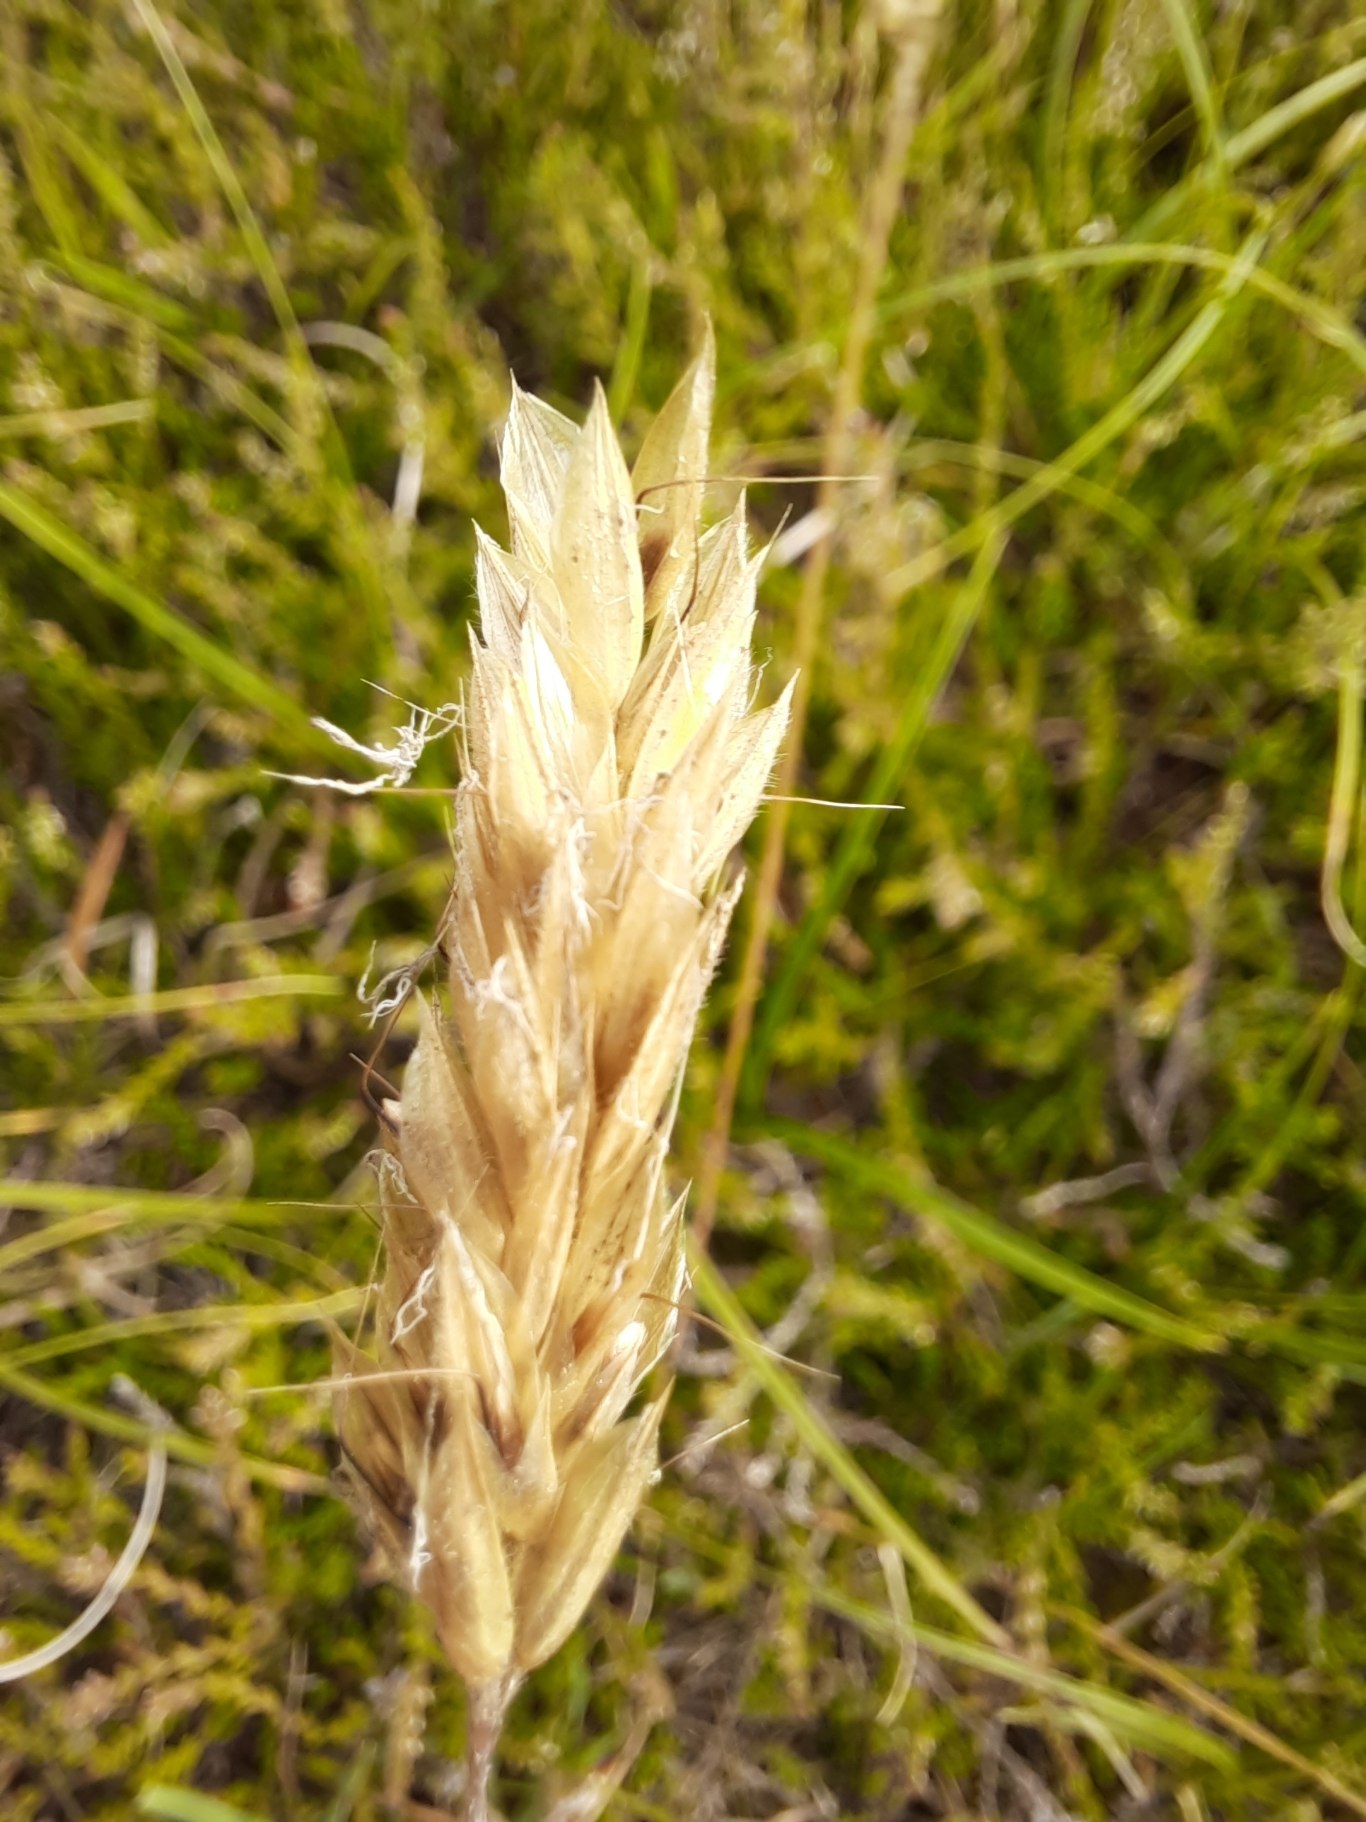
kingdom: Plantae
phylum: Tracheophyta
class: Liliopsida
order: Poales
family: Poaceae
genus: Anthoxanthum
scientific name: Anthoxanthum odoratum
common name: Vellugtende gulaks
